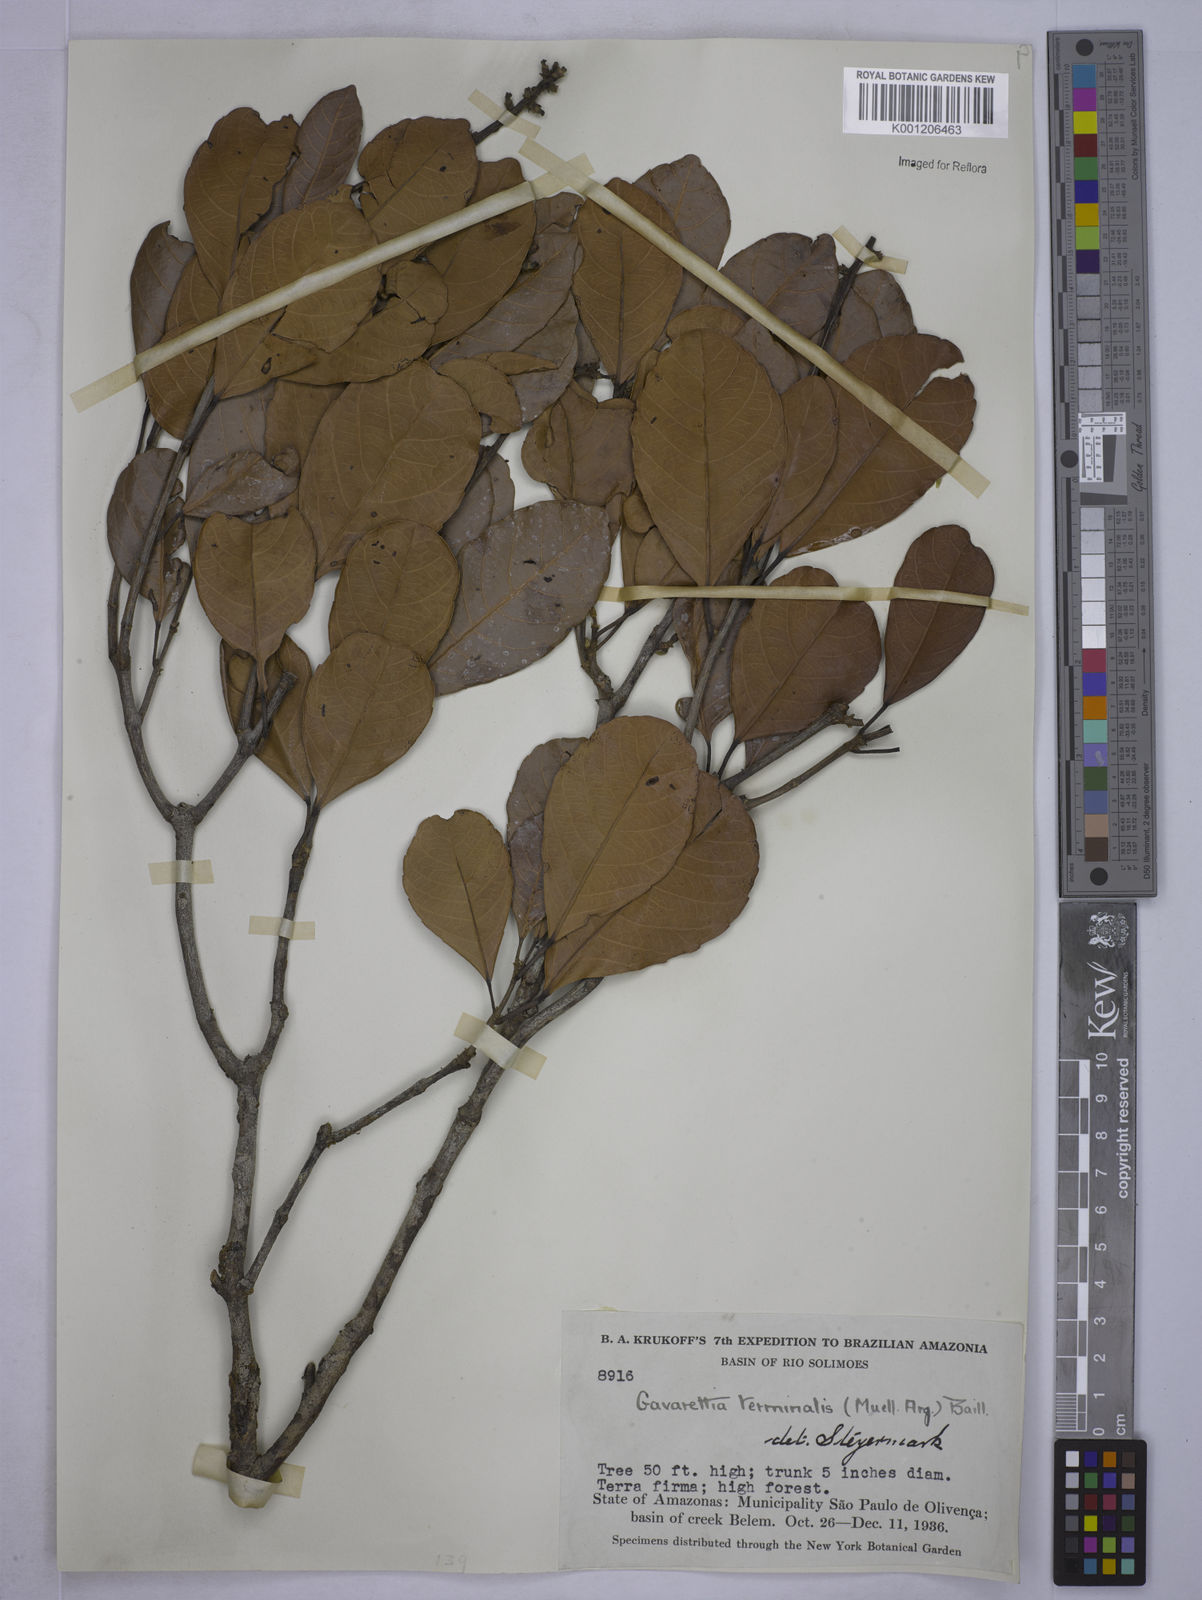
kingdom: Plantae
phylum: Tracheophyta
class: Magnoliopsida
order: Malpighiales
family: Euphorbiaceae
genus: Conceveiba
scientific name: Conceveiba
